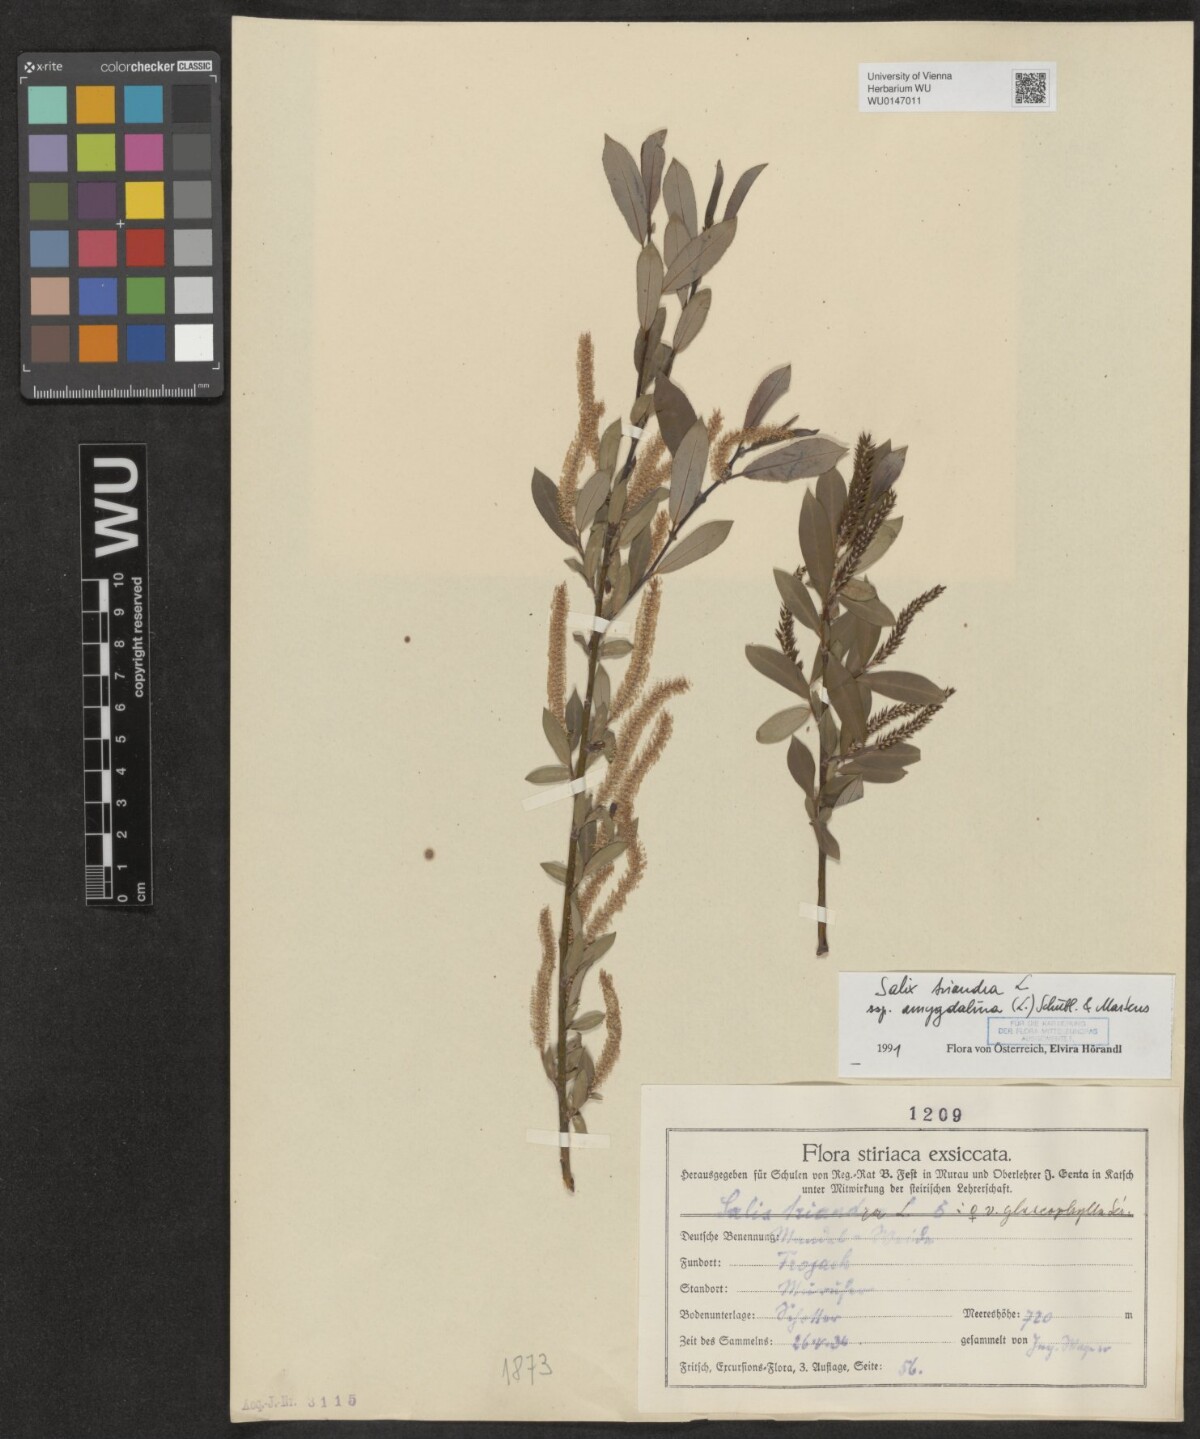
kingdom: Plantae
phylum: Tracheophyta
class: Magnoliopsida
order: Malpighiales
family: Salicaceae
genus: Salix
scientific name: Salix triandra
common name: Almond willow
